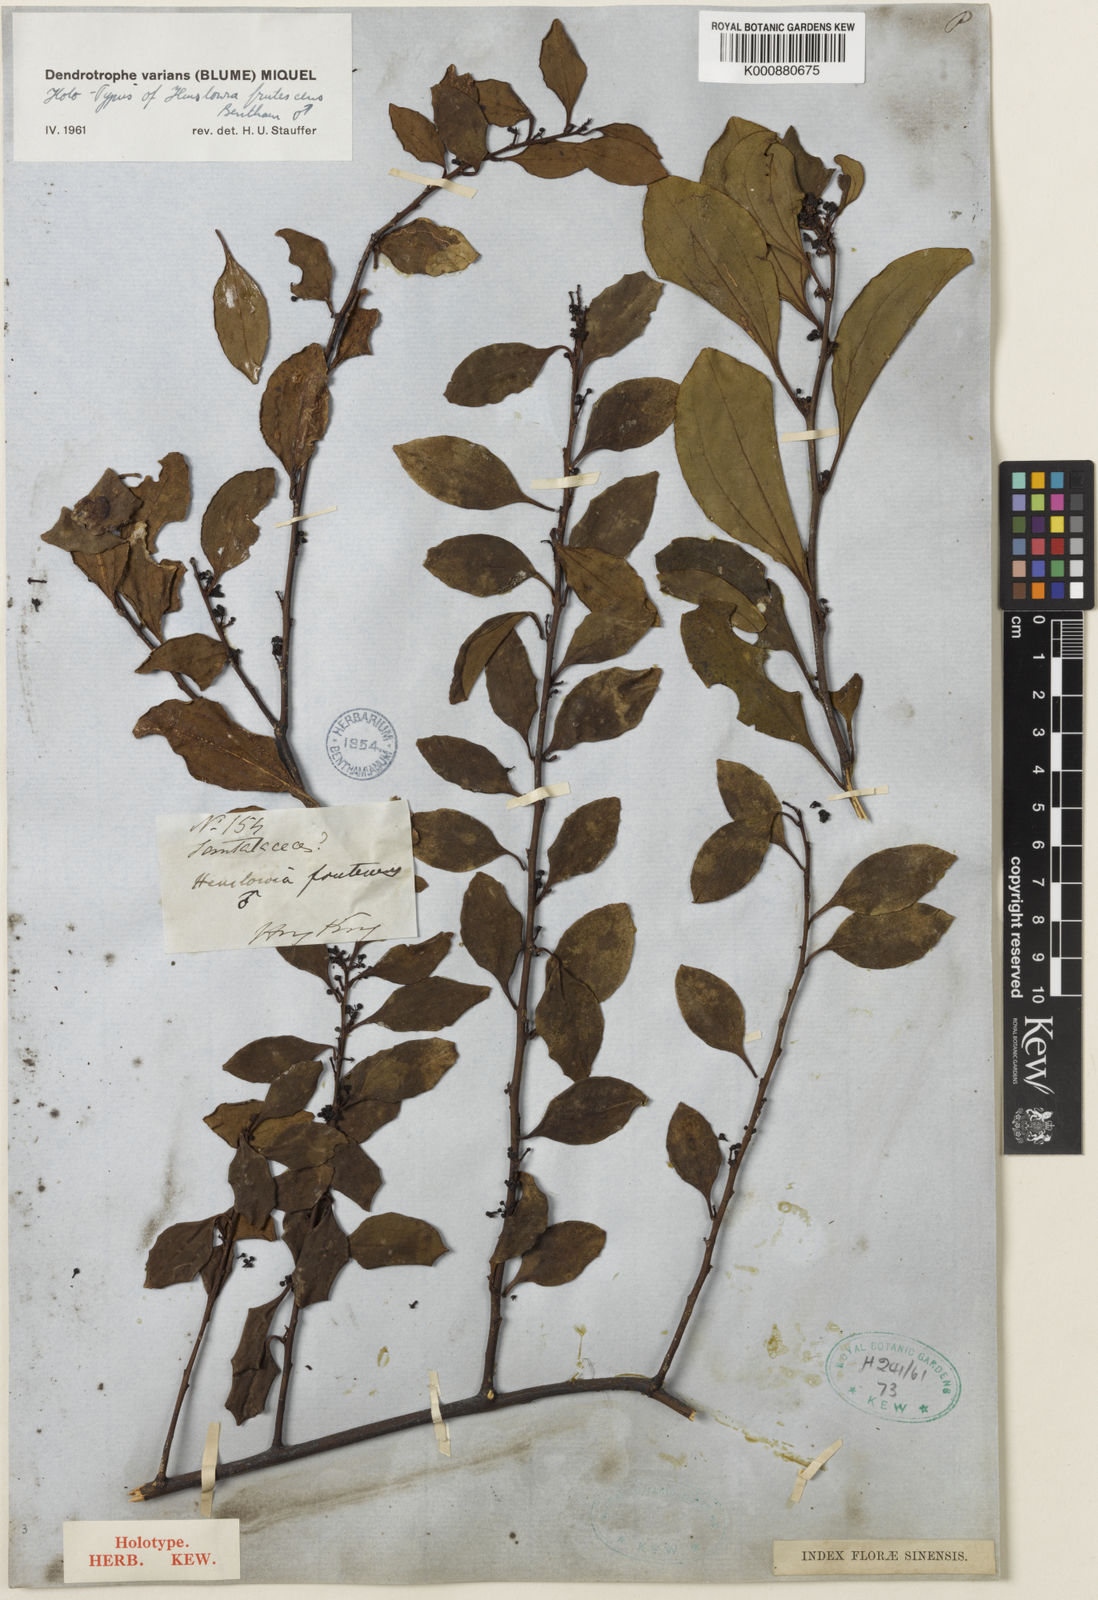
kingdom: Plantae
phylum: Tracheophyta
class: Magnoliopsida
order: Santalales
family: Amphorogynaceae
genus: Dendrotrophe
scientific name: Dendrotrophe varians
